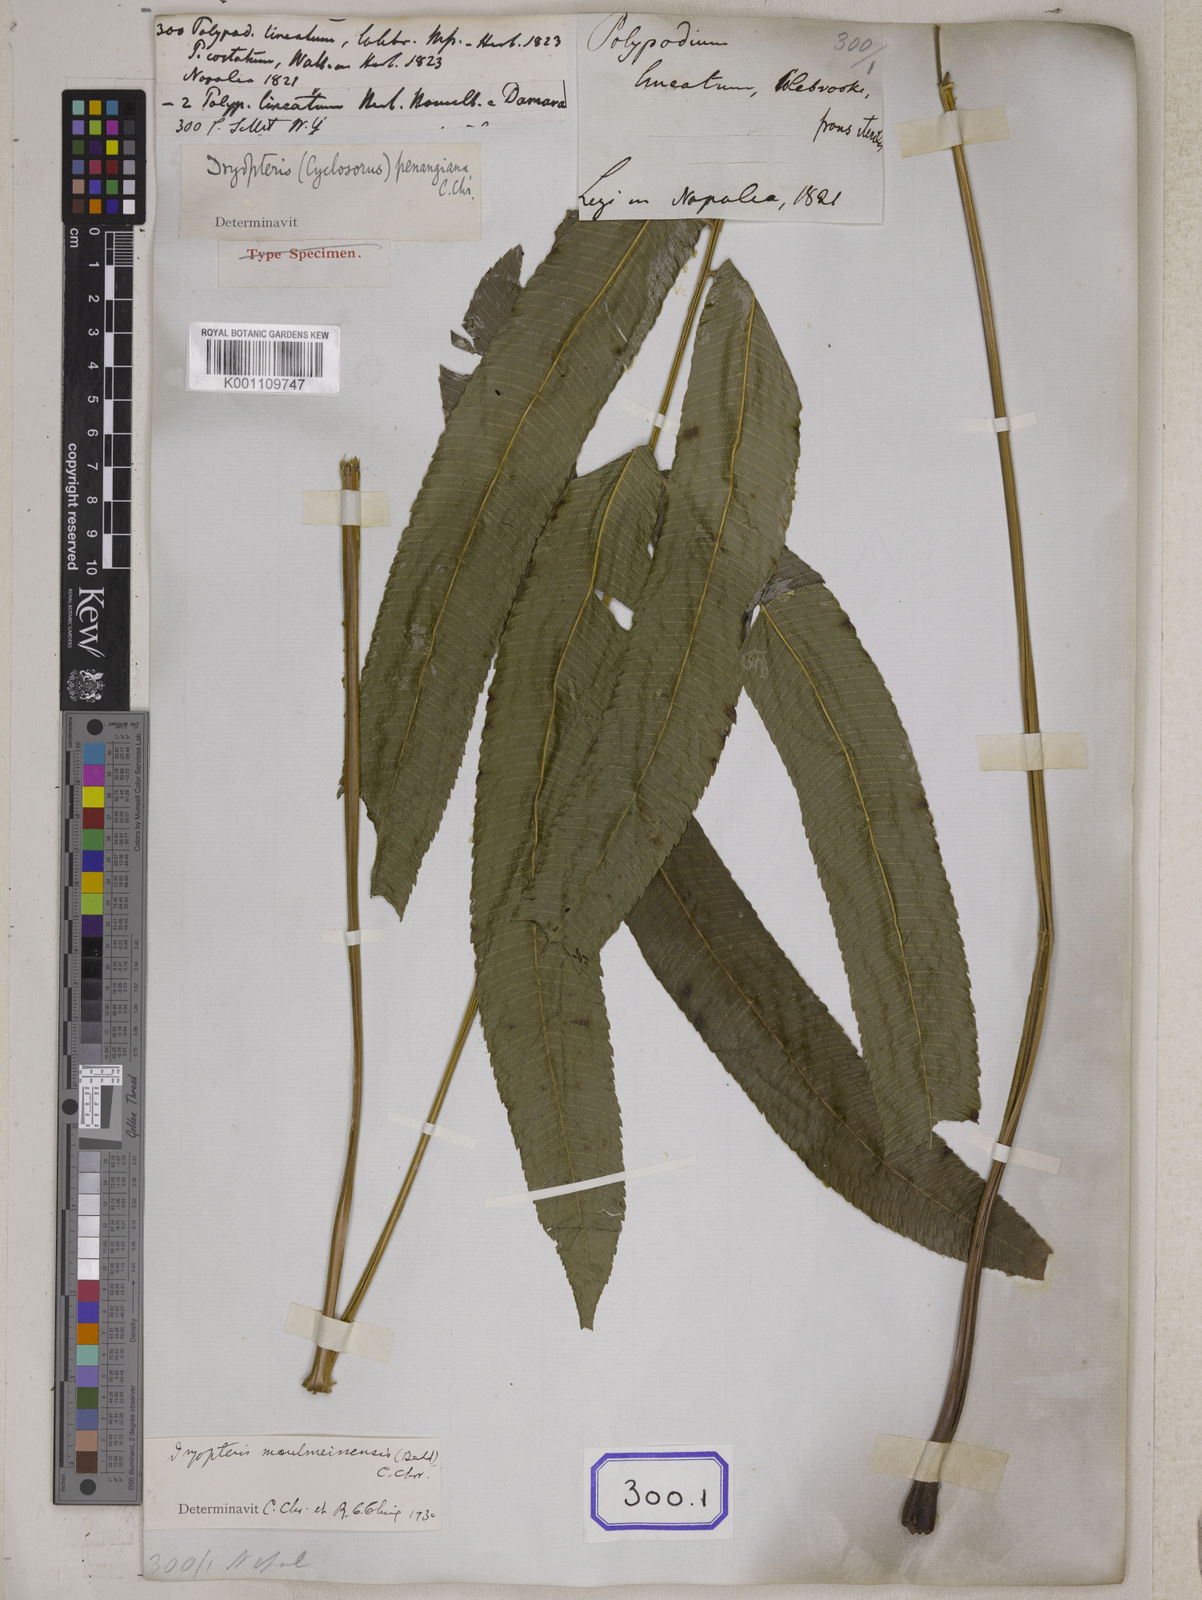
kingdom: Plantae
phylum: Tracheophyta
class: Polypodiopsida
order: Polypodiales
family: Polypodiaceae
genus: Polypodium
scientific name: Polypodium
